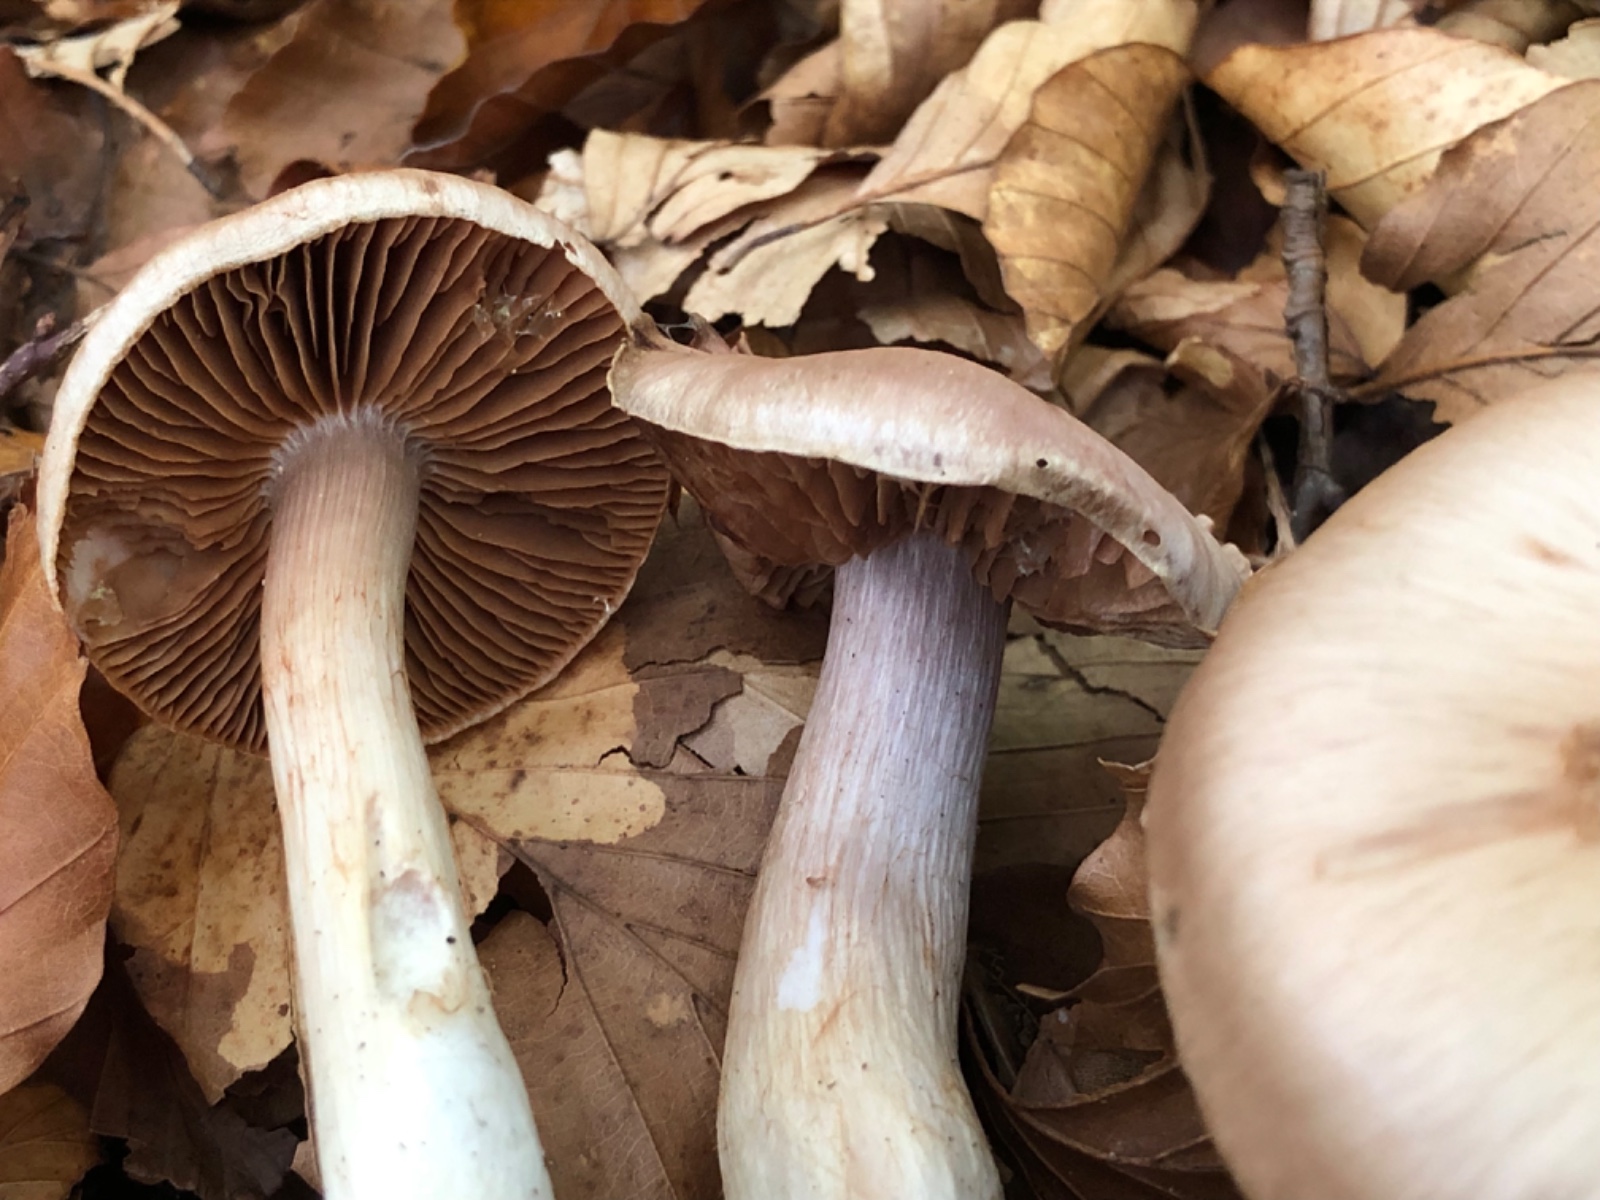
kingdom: Fungi
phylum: Basidiomycota
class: Agaricomycetes
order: Agaricales
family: Cortinariaceae
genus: Cortinarius
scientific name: Cortinarius
